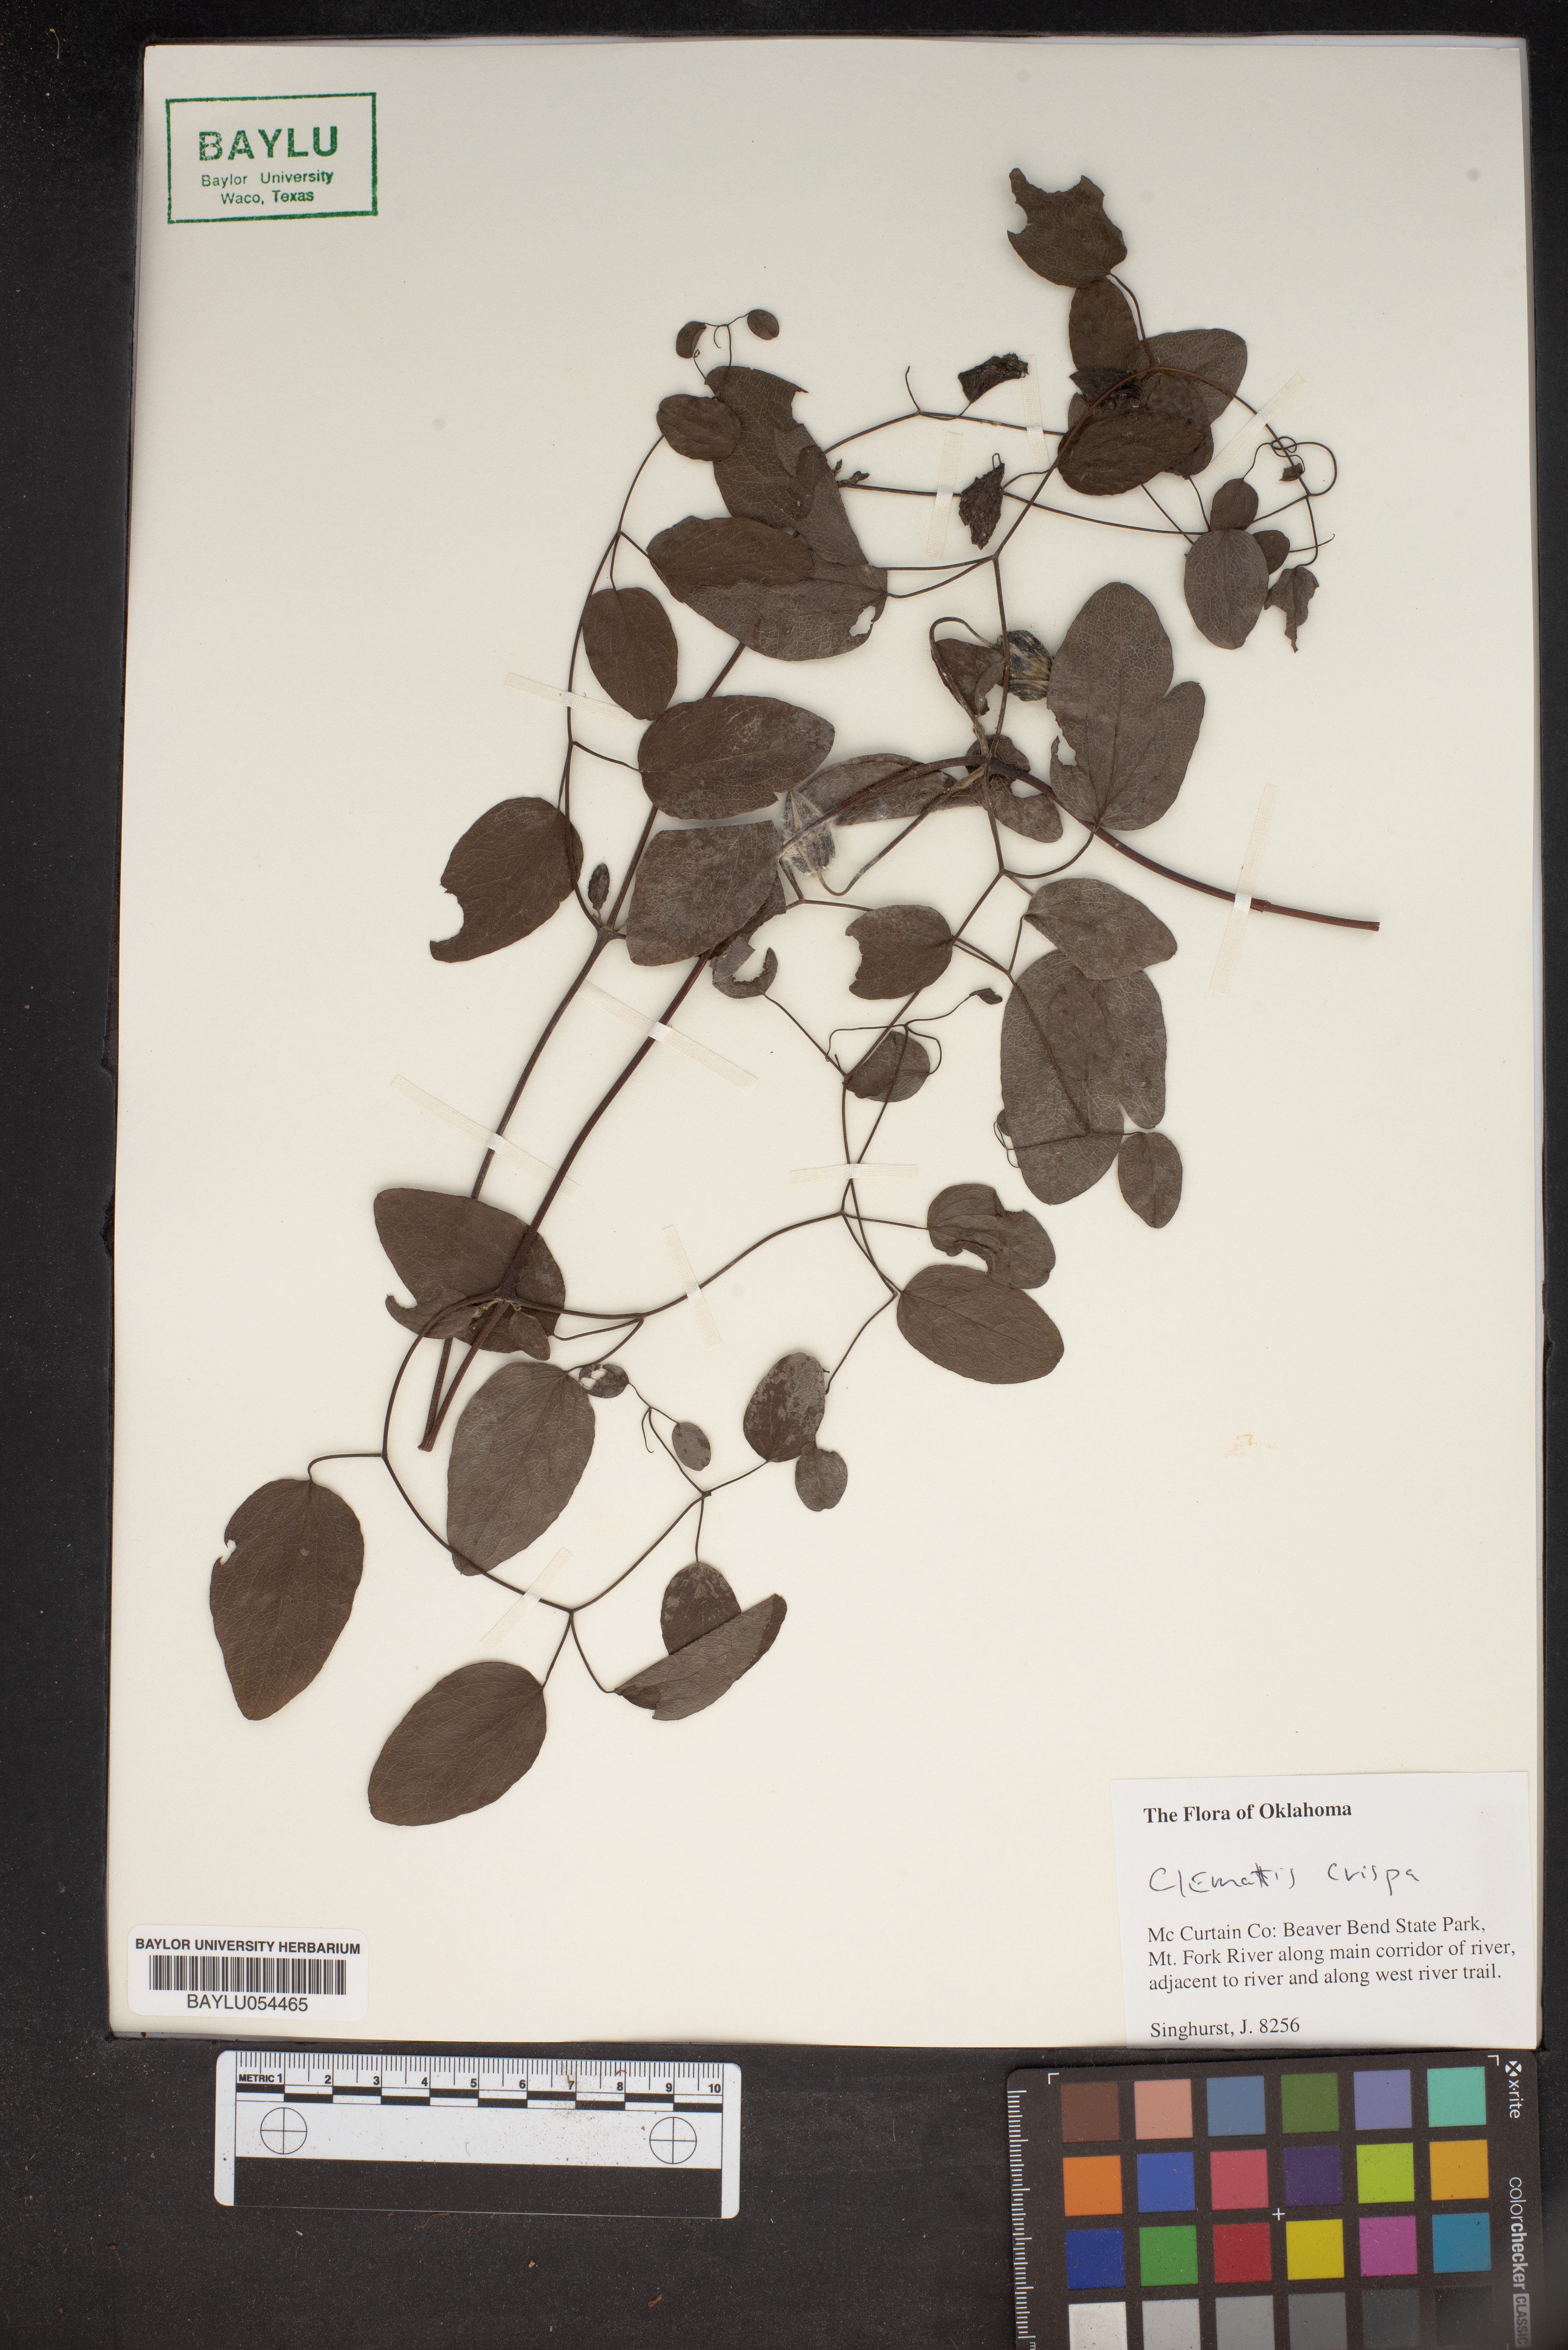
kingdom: Plantae
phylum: Tracheophyta
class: Magnoliopsida
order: Ranunculales
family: Ranunculaceae
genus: Clematis
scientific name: Clematis crispa
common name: Curly clematis
